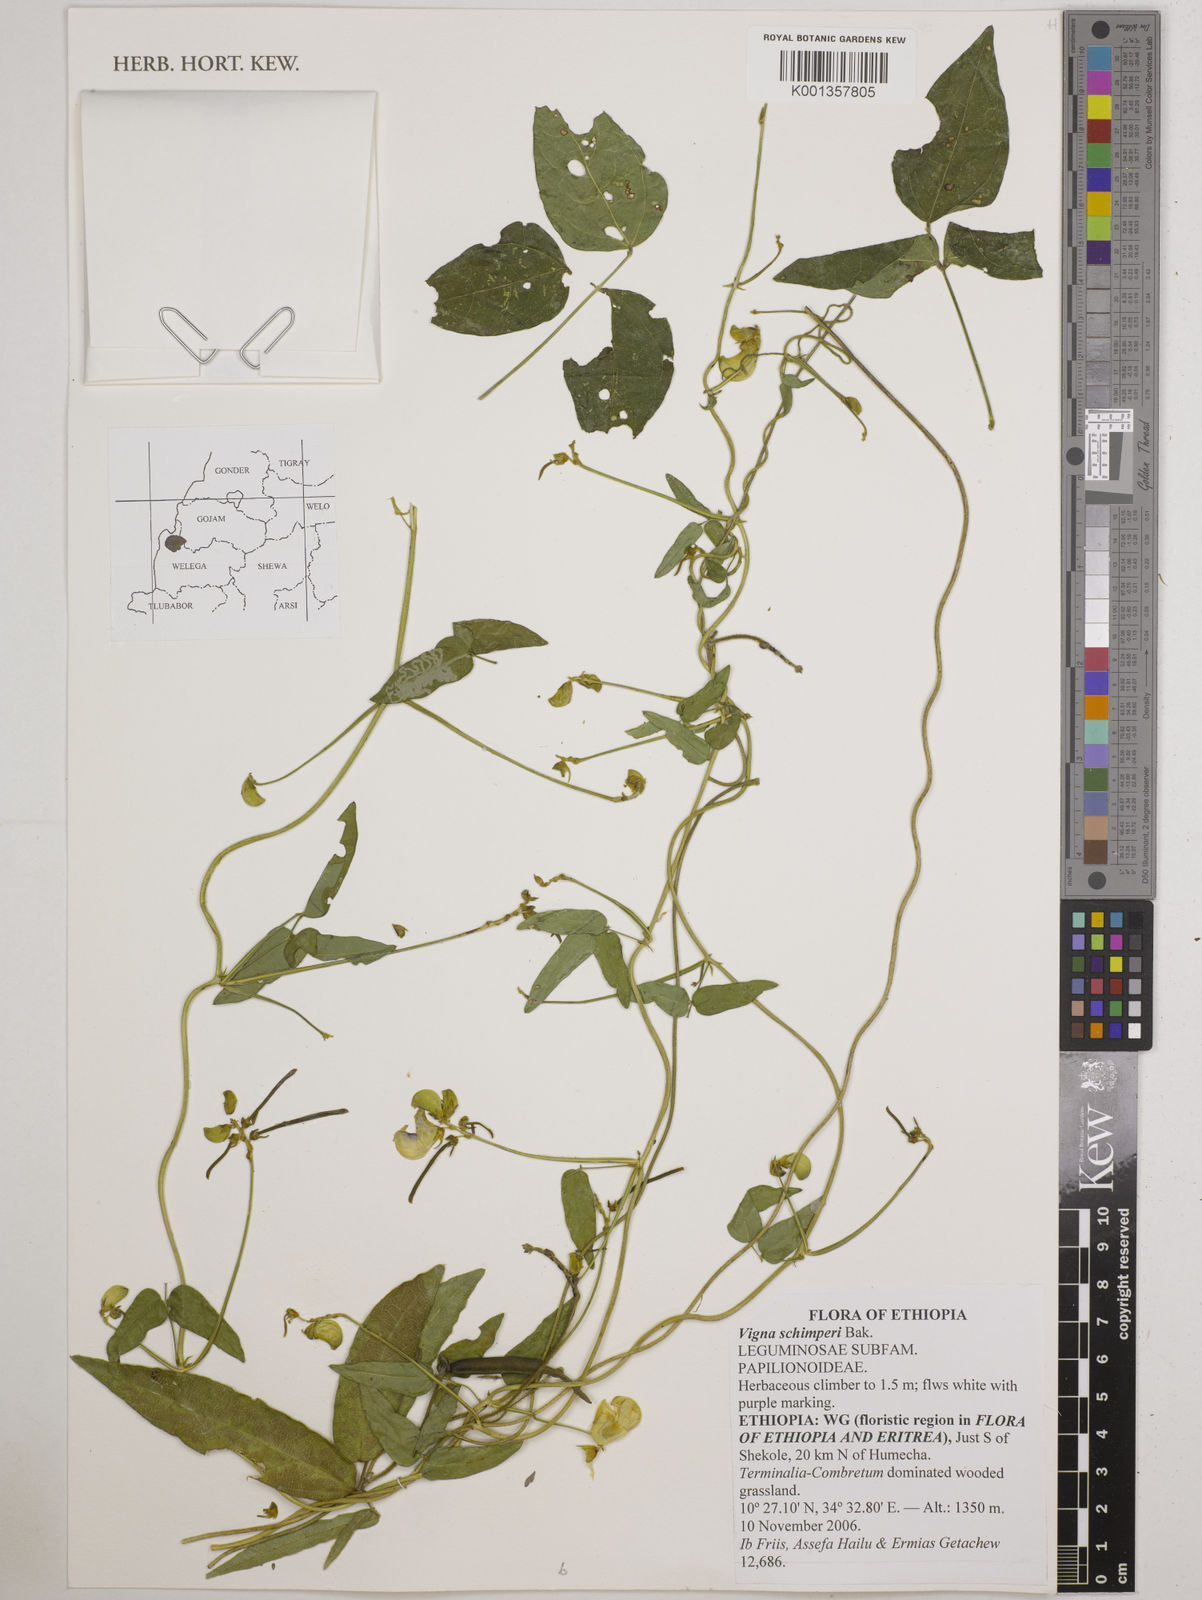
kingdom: Plantae
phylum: Tracheophyta
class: Magnoliopsida
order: Fabales
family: Fabaceae
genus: Vigna
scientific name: Vigna schimperi
